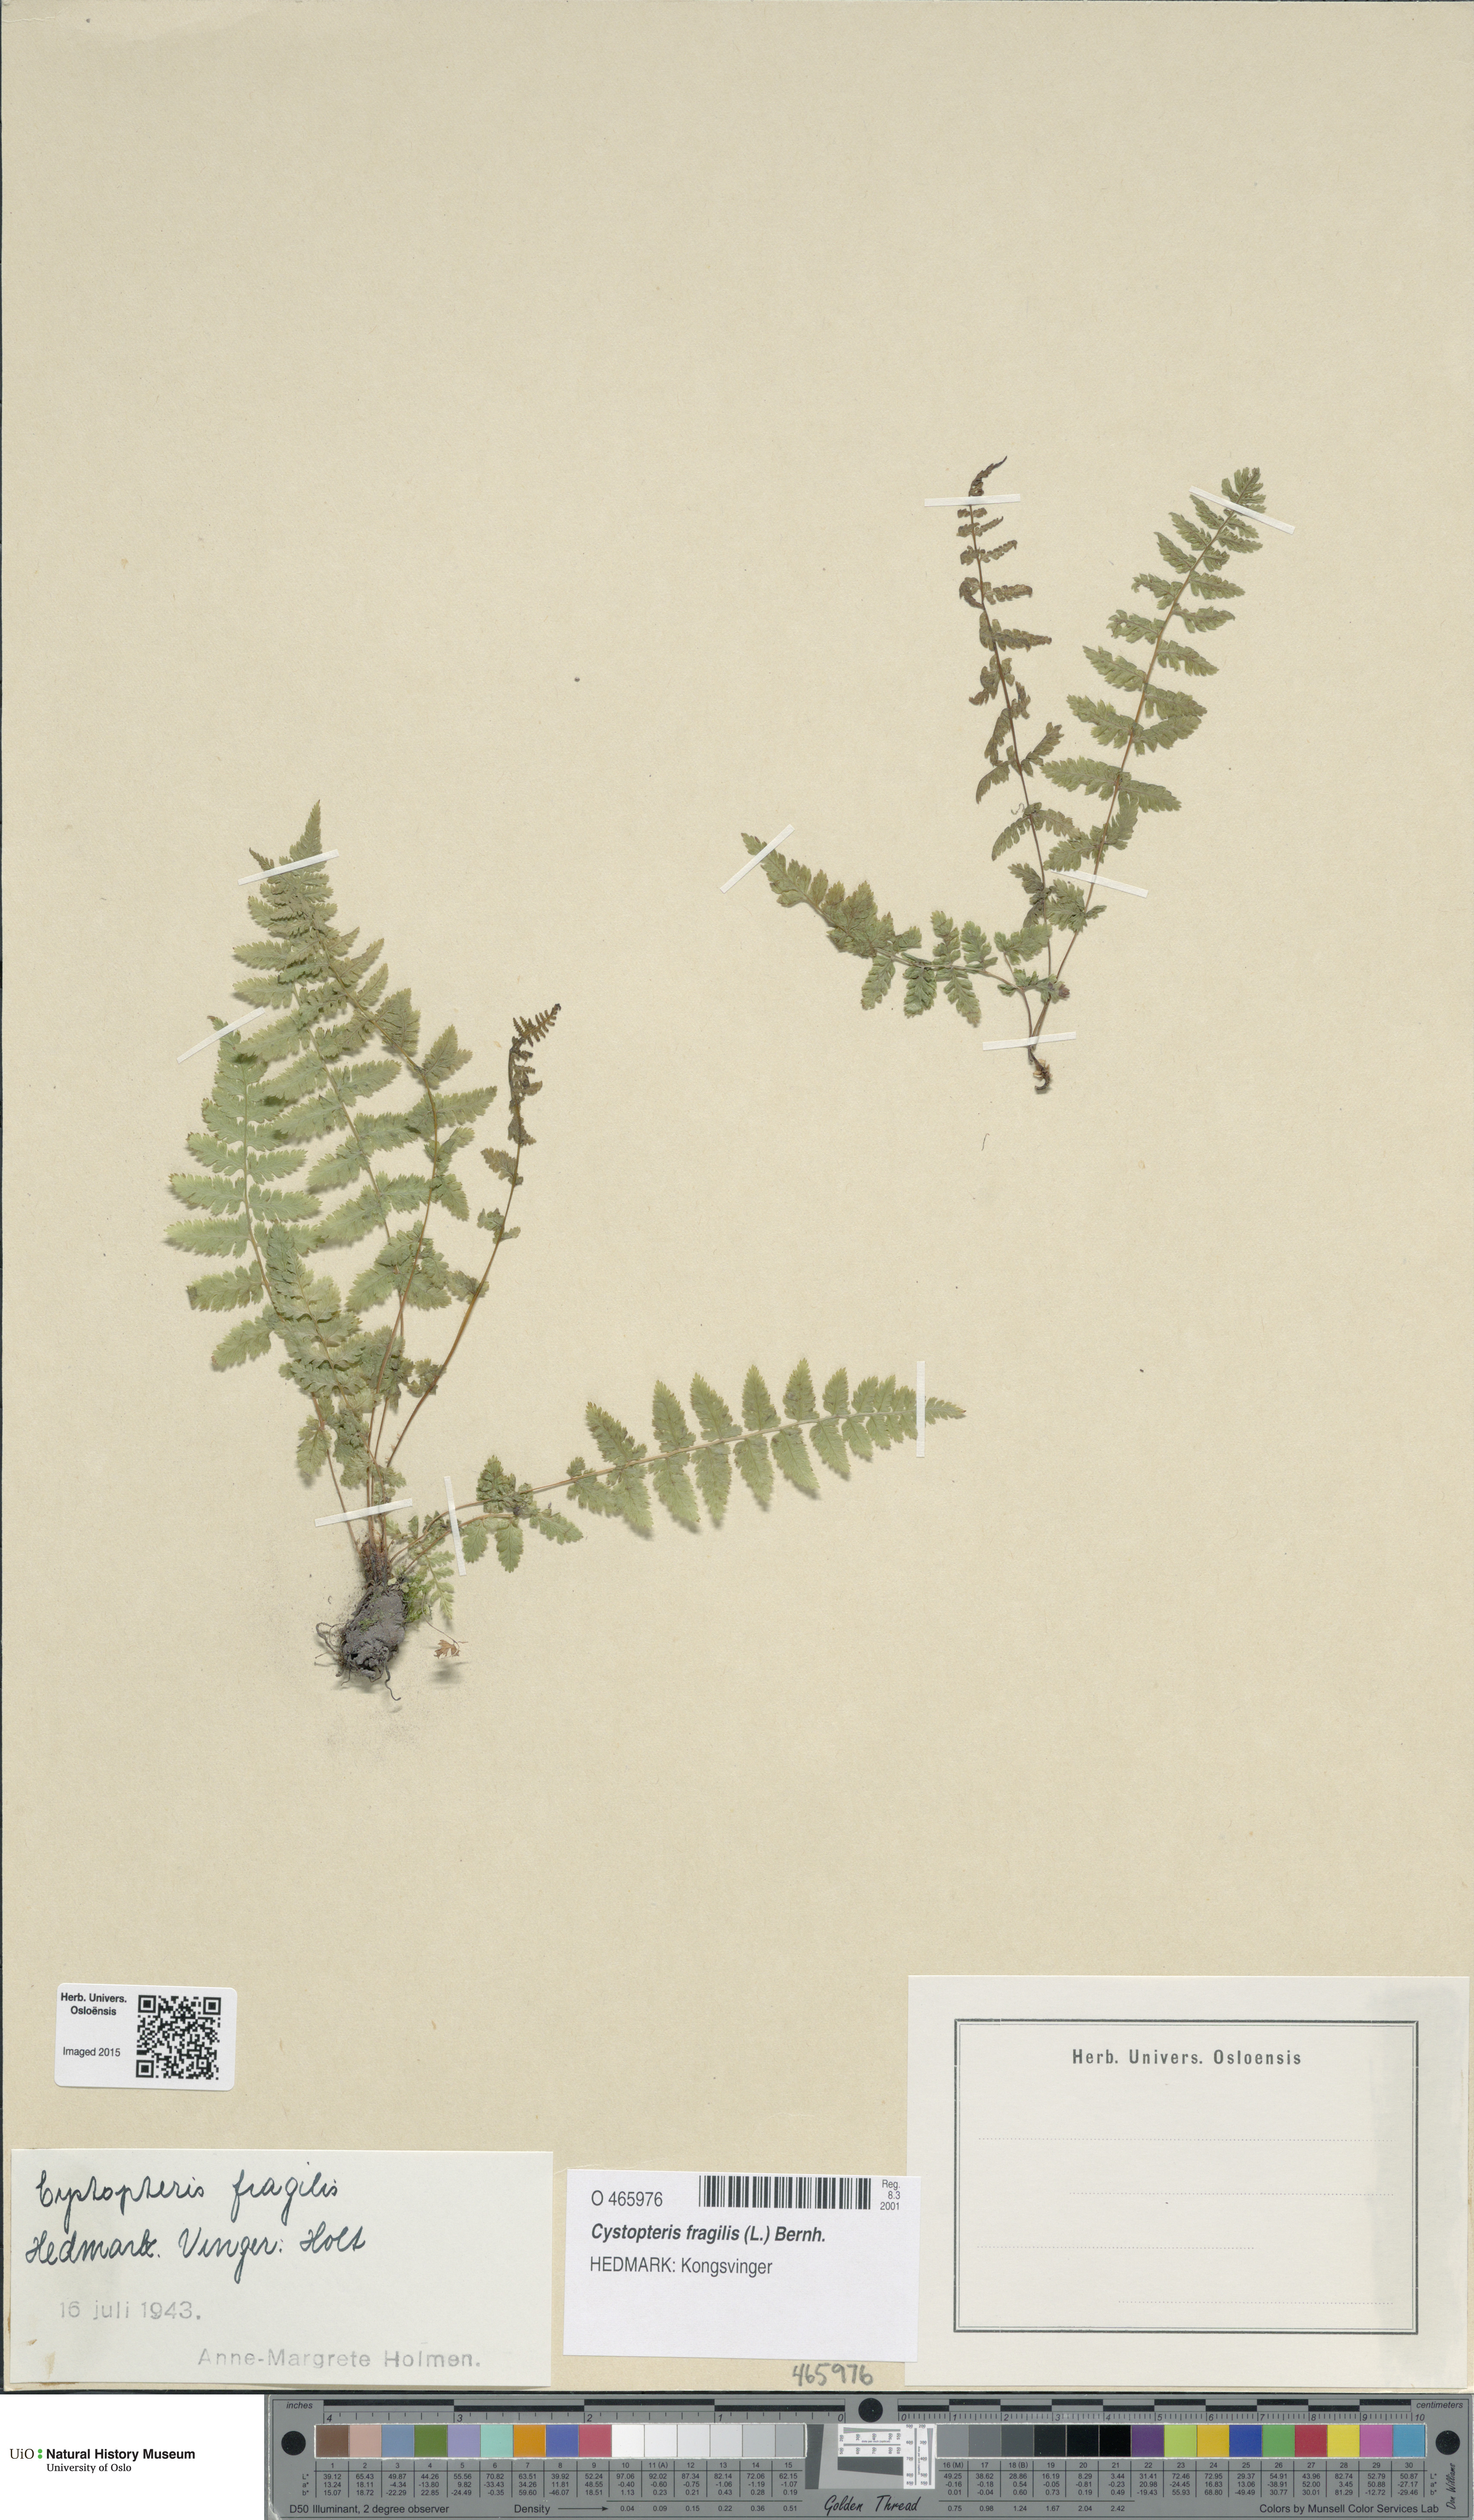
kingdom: Plantae
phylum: Tracheophyta
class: Polypodiopsida
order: Polypodiales
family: Cystopteridaceae
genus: Cystopteris
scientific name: Cystopteris fragilis
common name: Brittle bladder fern
